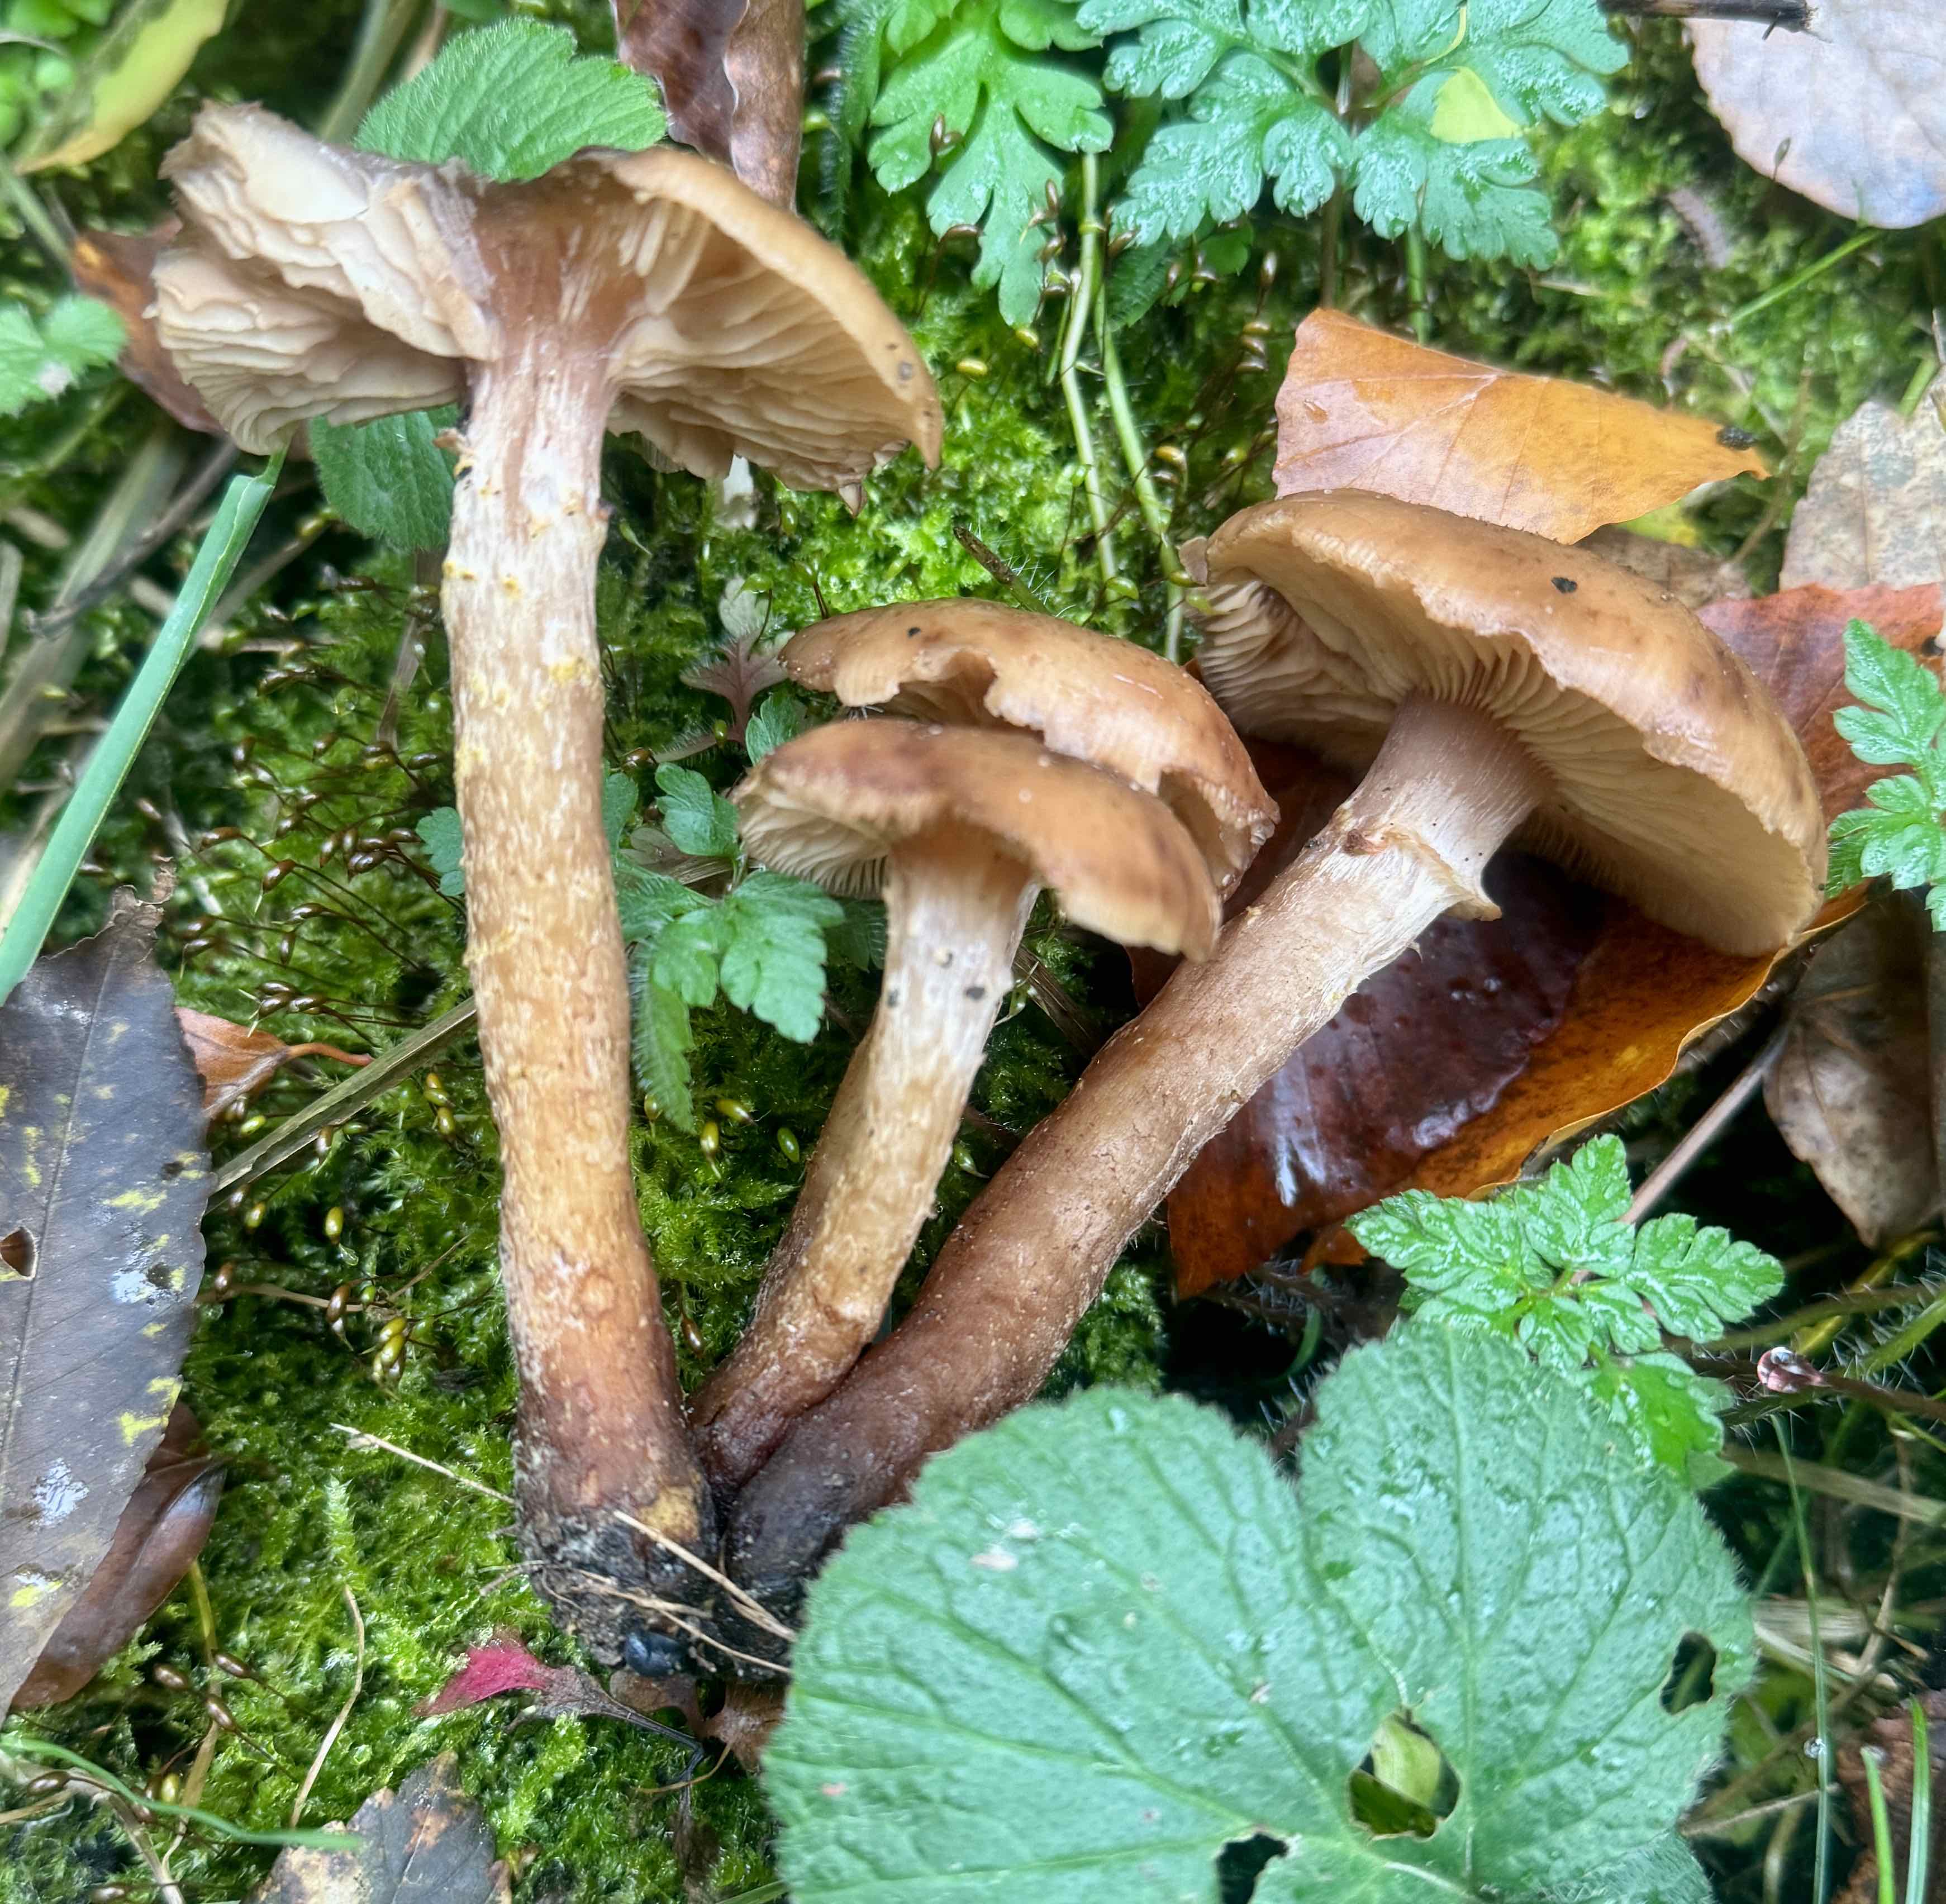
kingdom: Fungi
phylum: Basidiomycota
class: Agaricomycetes
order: Agaricales
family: Physalacriaceae
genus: Armillaria
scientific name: Armillaria lutea
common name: køllestokket honningsvamp
